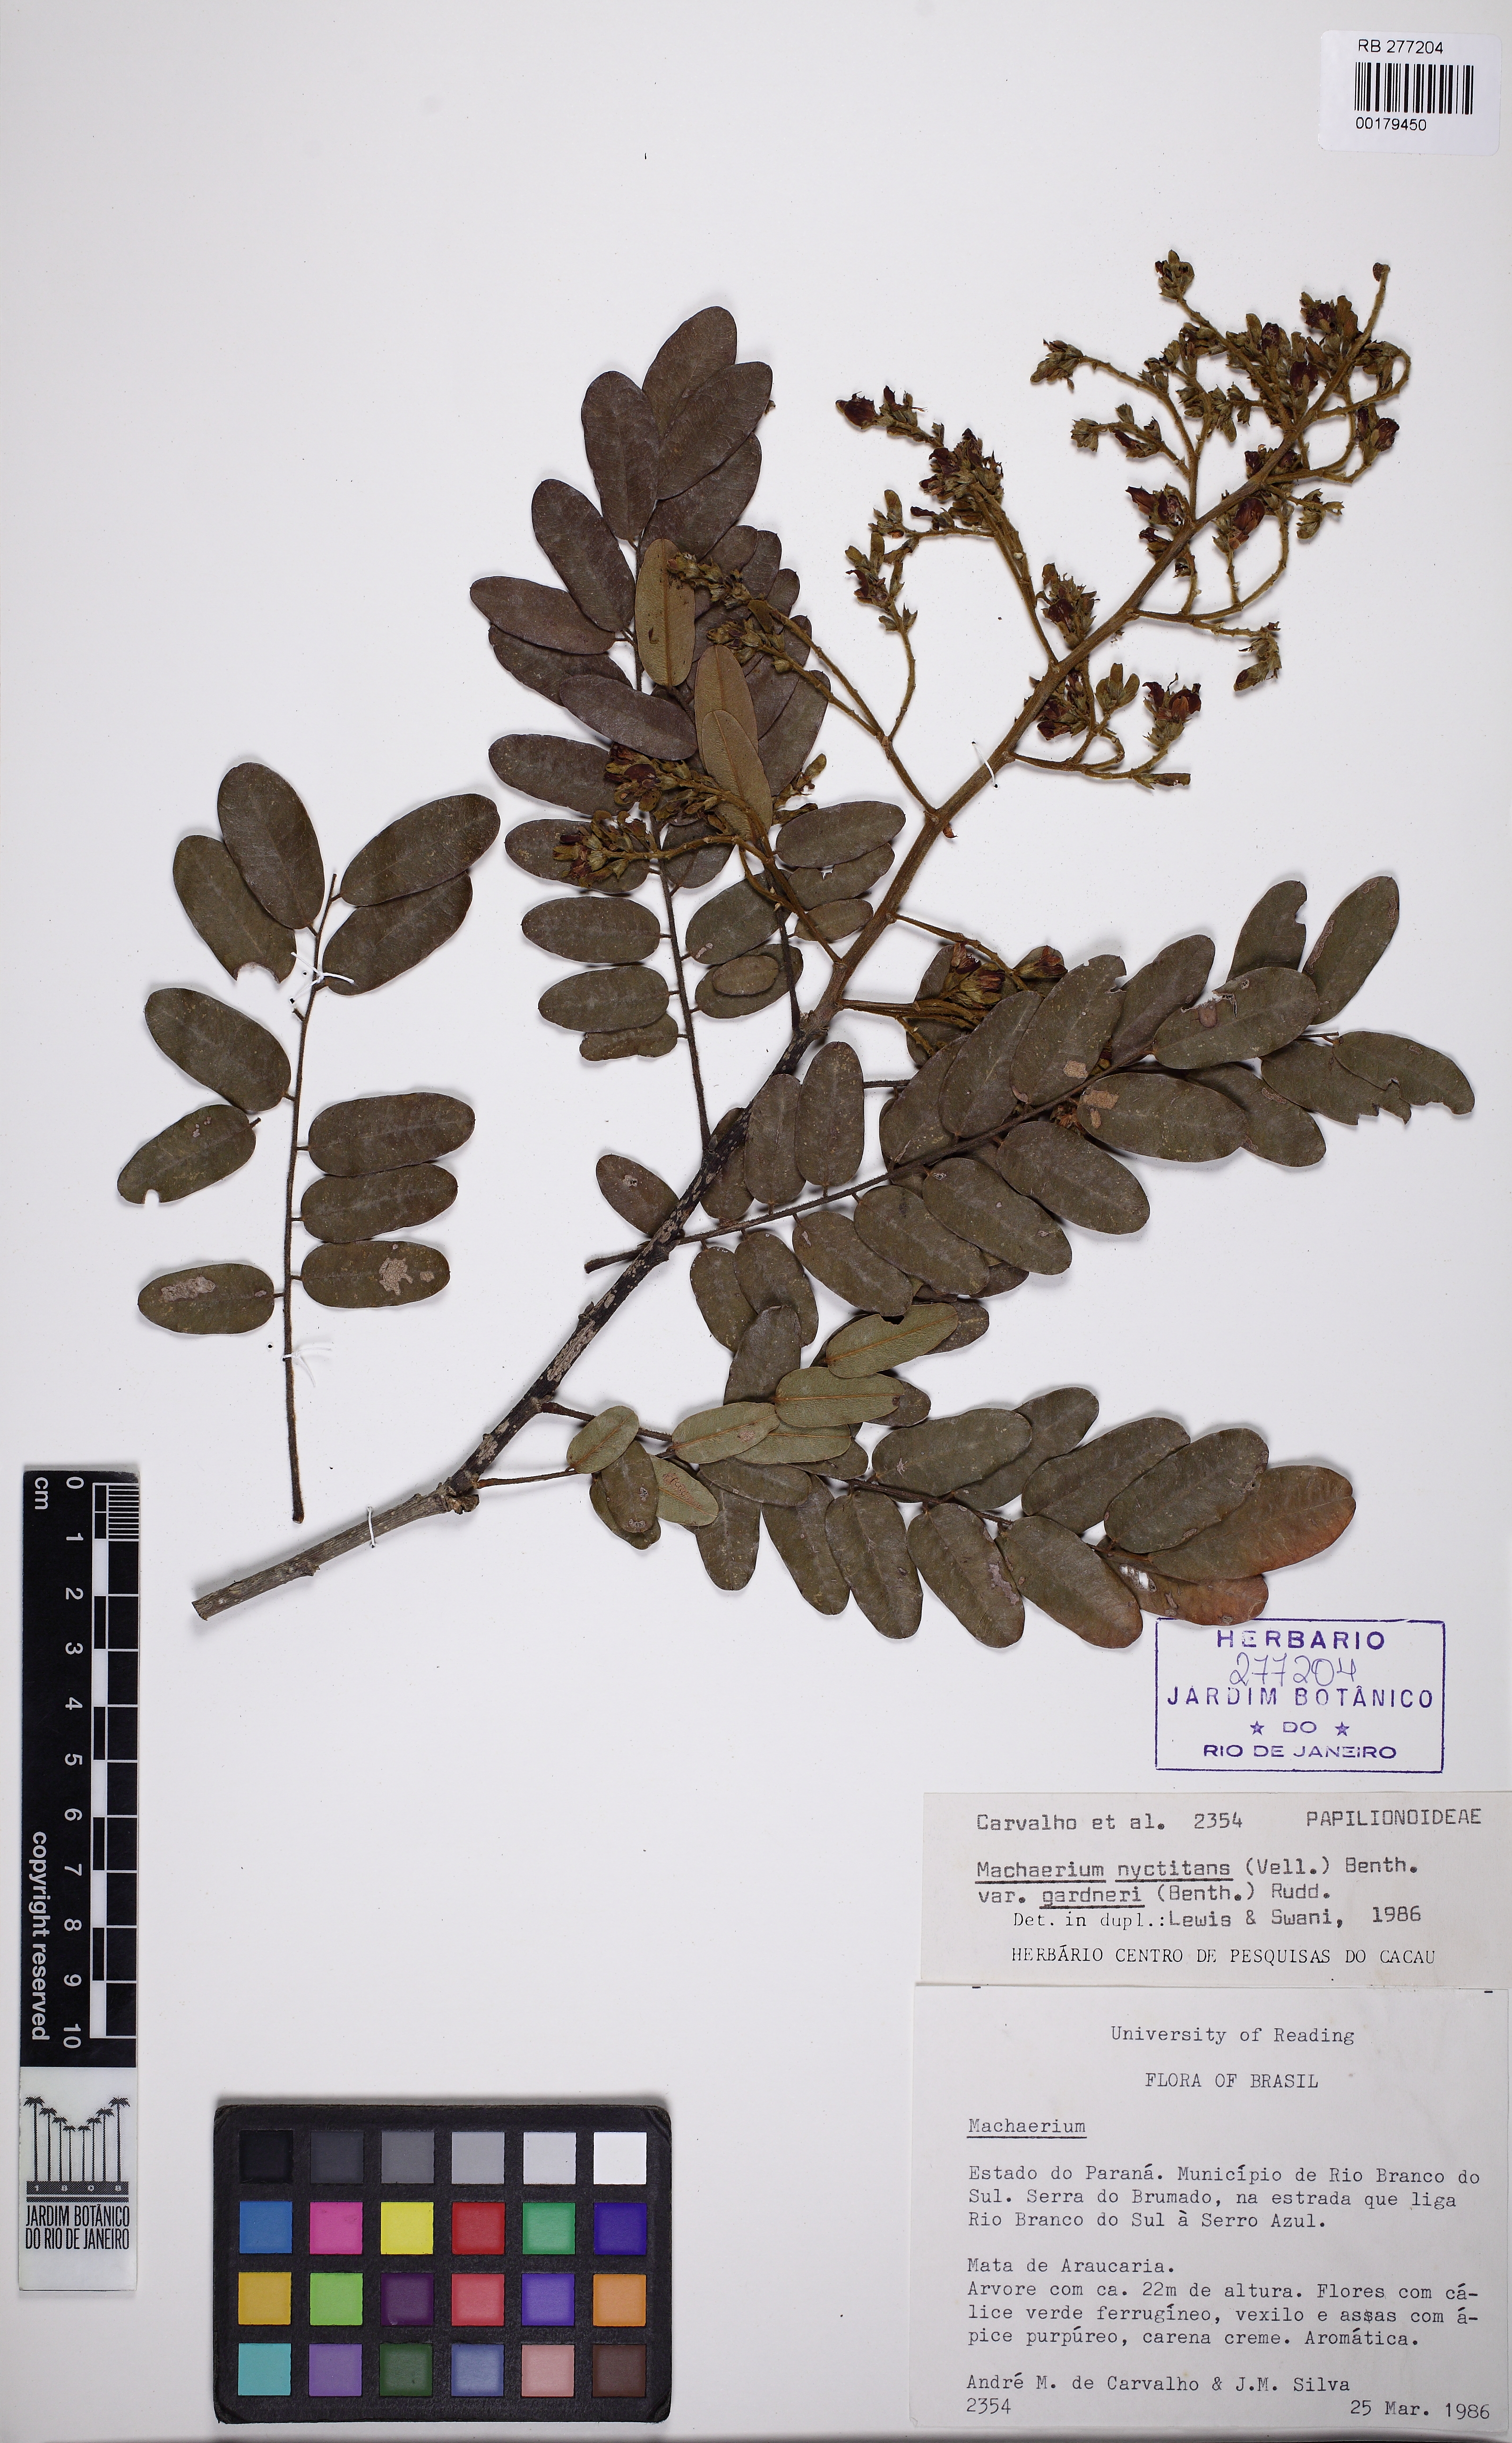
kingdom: Plantae
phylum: Tracheophyta
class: Magnoliopsida
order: Fabales
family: Fabaceae
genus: Machaerium
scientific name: Machaerium nyctitans
